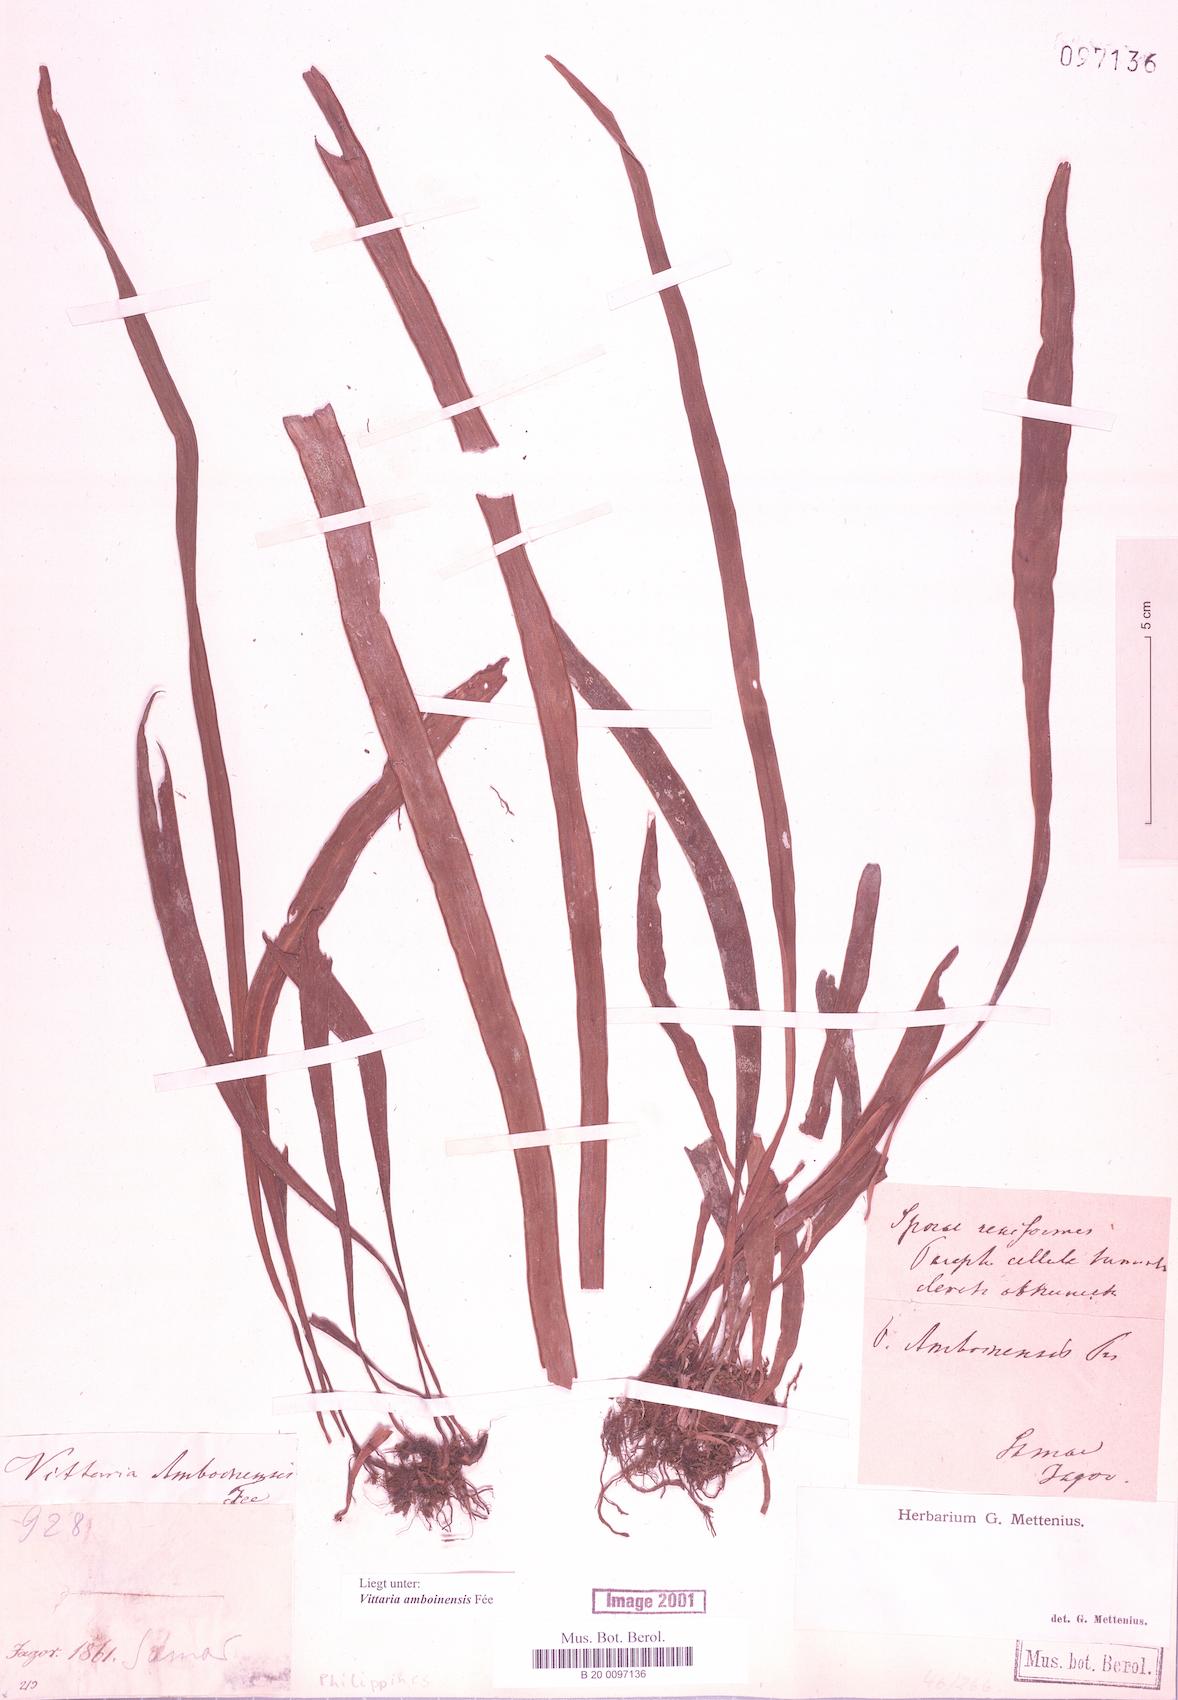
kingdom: Plantae
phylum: Tracheophyta
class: Polypodiopsida
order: Polypodiales
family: Pteridaceae
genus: Haplopteris
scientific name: Haplopteris amboinensis
